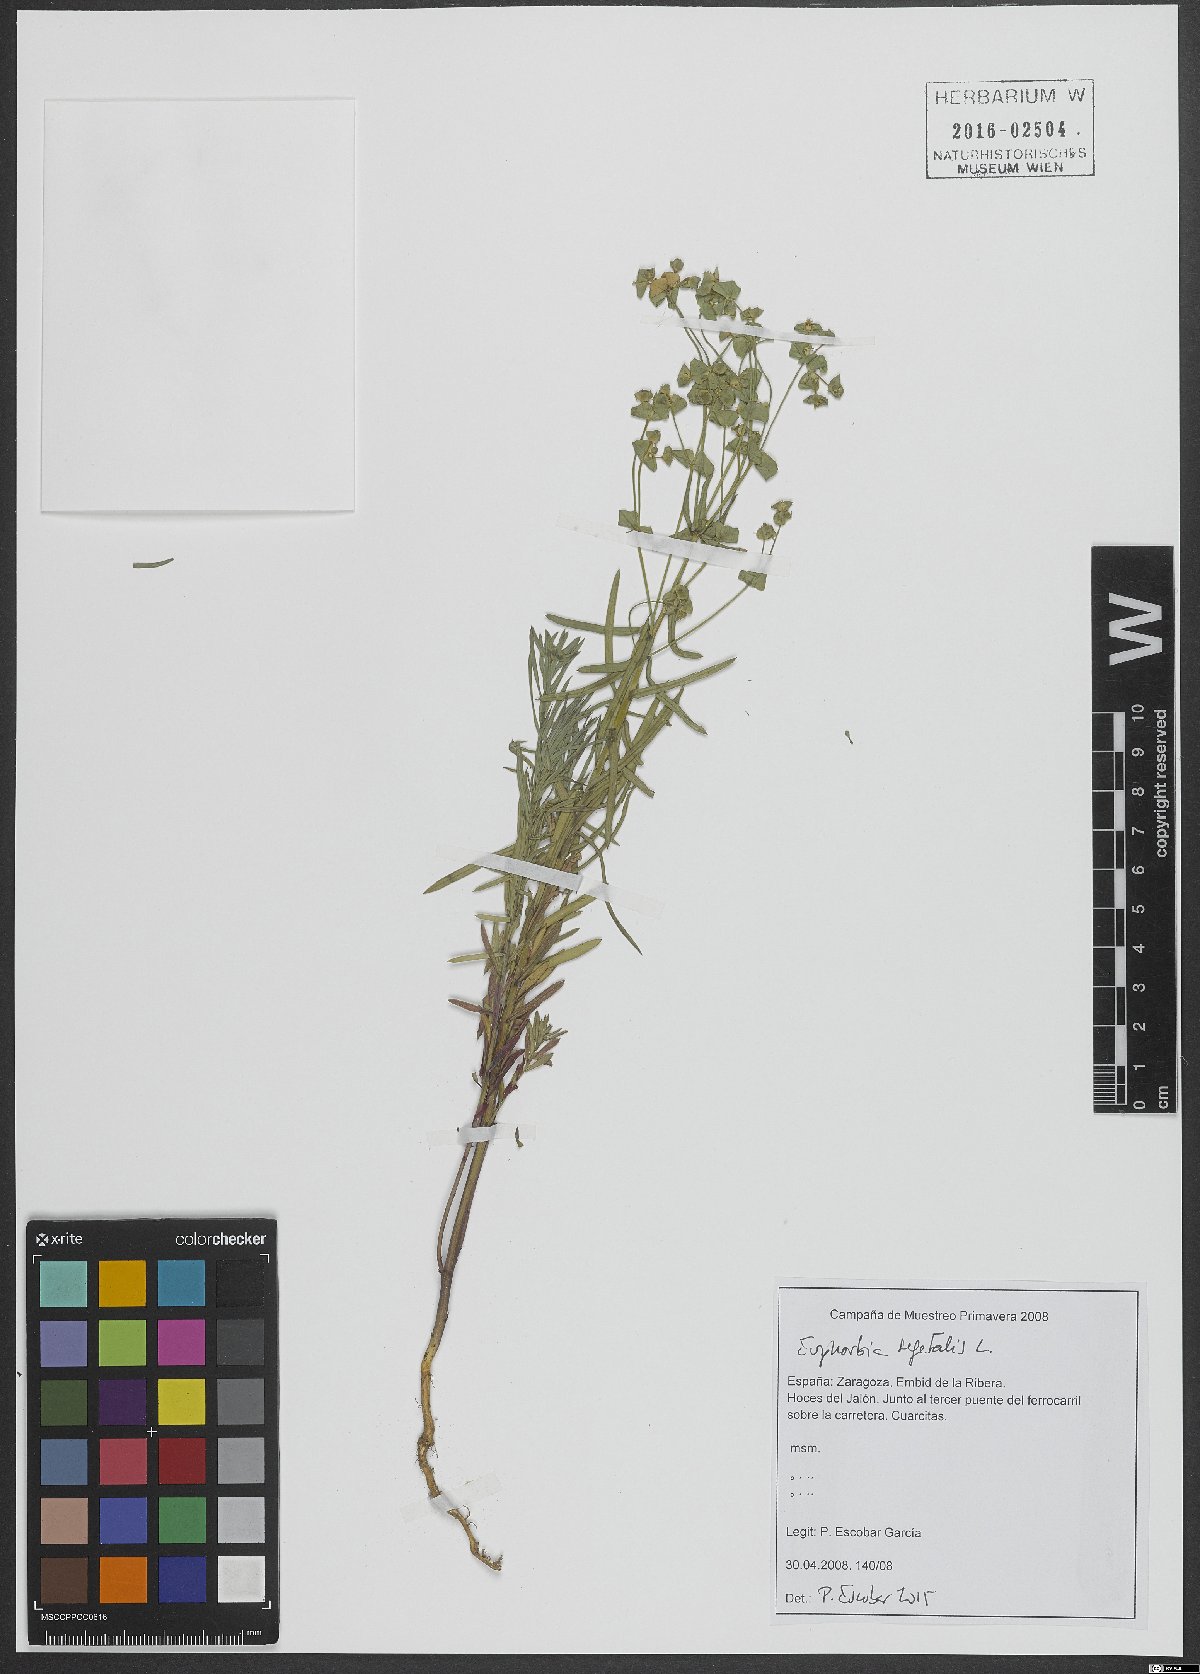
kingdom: Plantae
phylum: Tracheophyta
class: Magnoliopsida
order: Malpighiales
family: Euphorbiaceae
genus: Euphorbia
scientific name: Euphorbia segetalis
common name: Corn spurge
